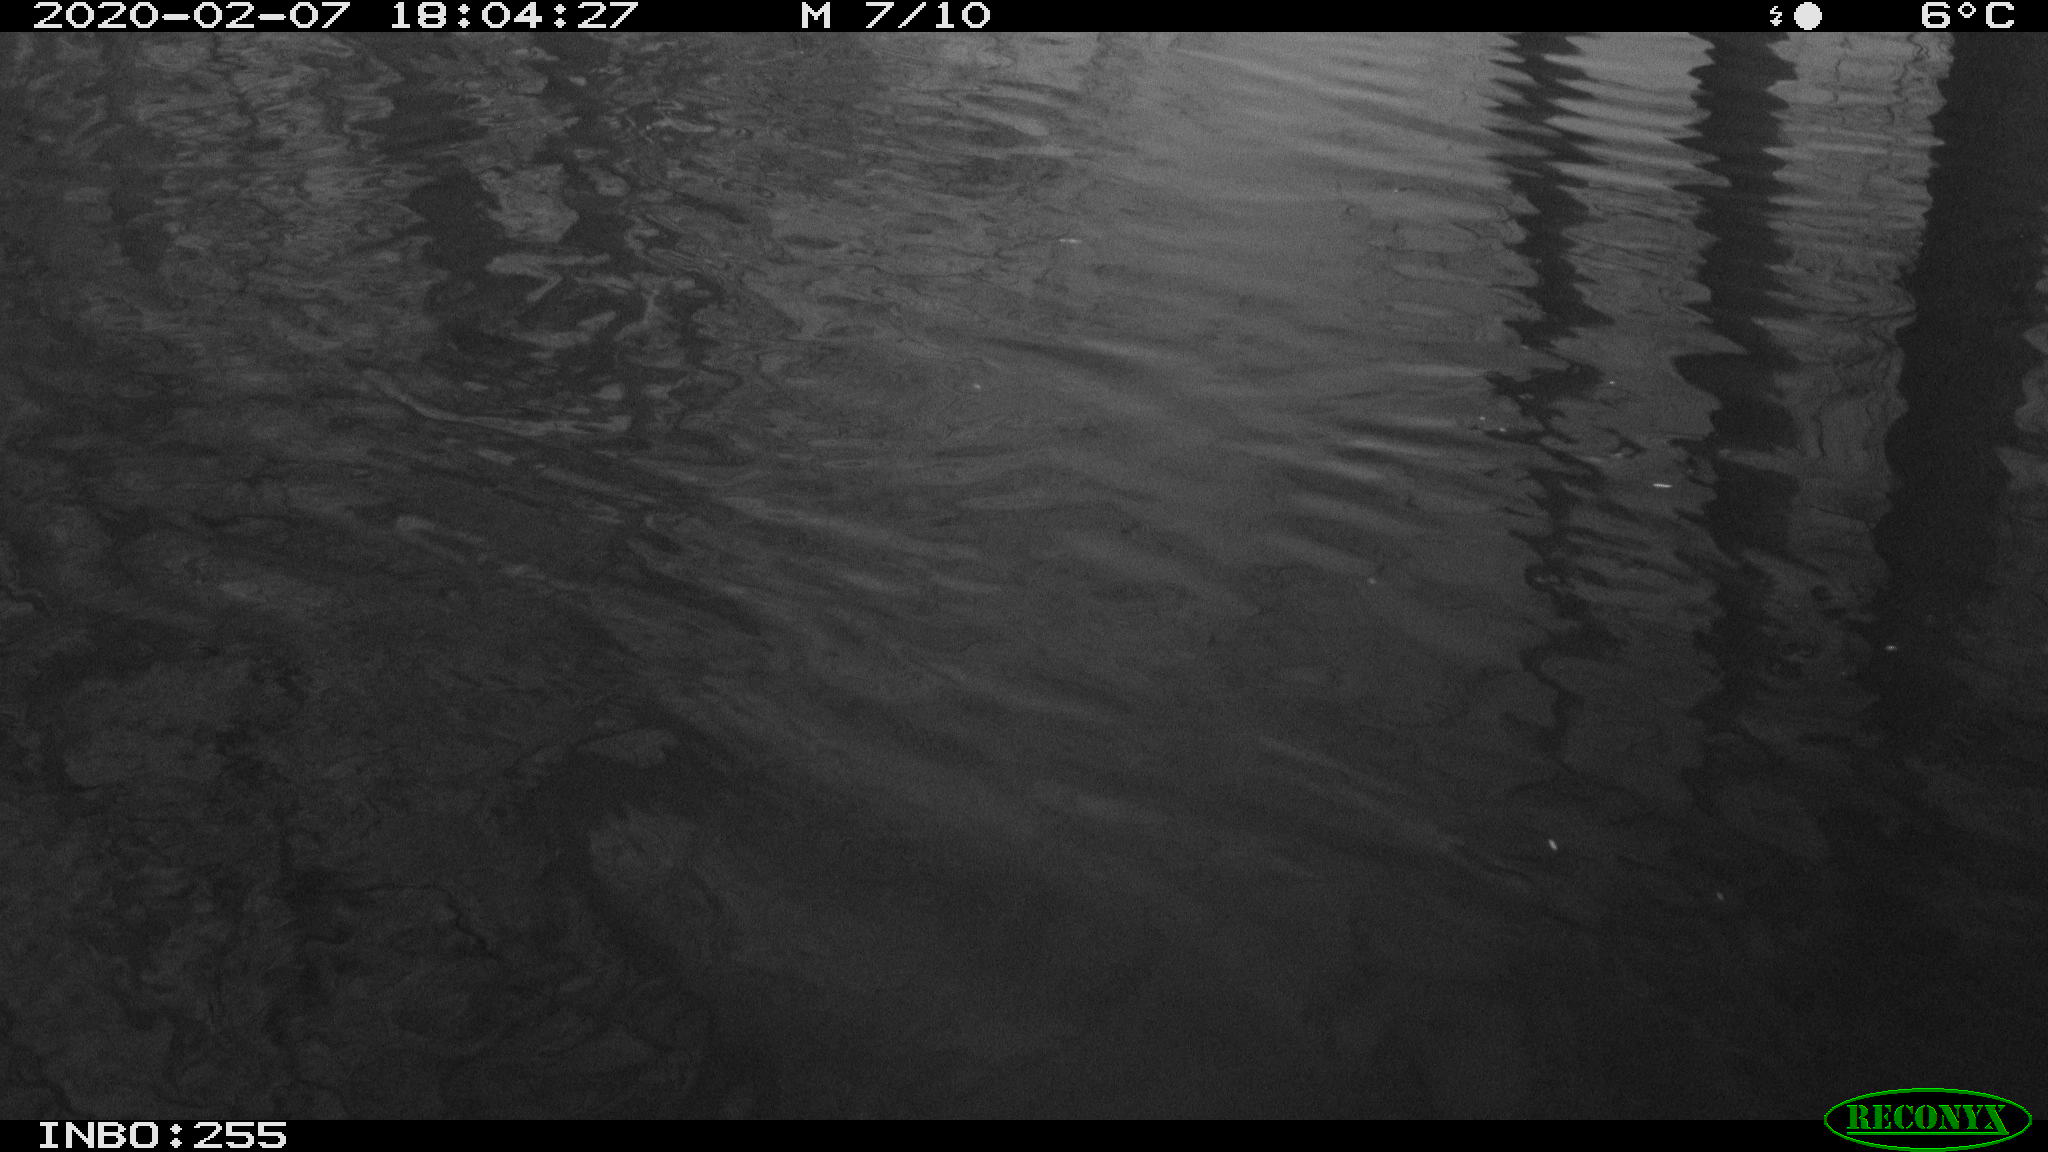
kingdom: Animalia
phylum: Chordata
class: Aves
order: Gruiformes
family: Rallidae
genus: Fulica
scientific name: Fulica atra
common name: Eurasian coot
